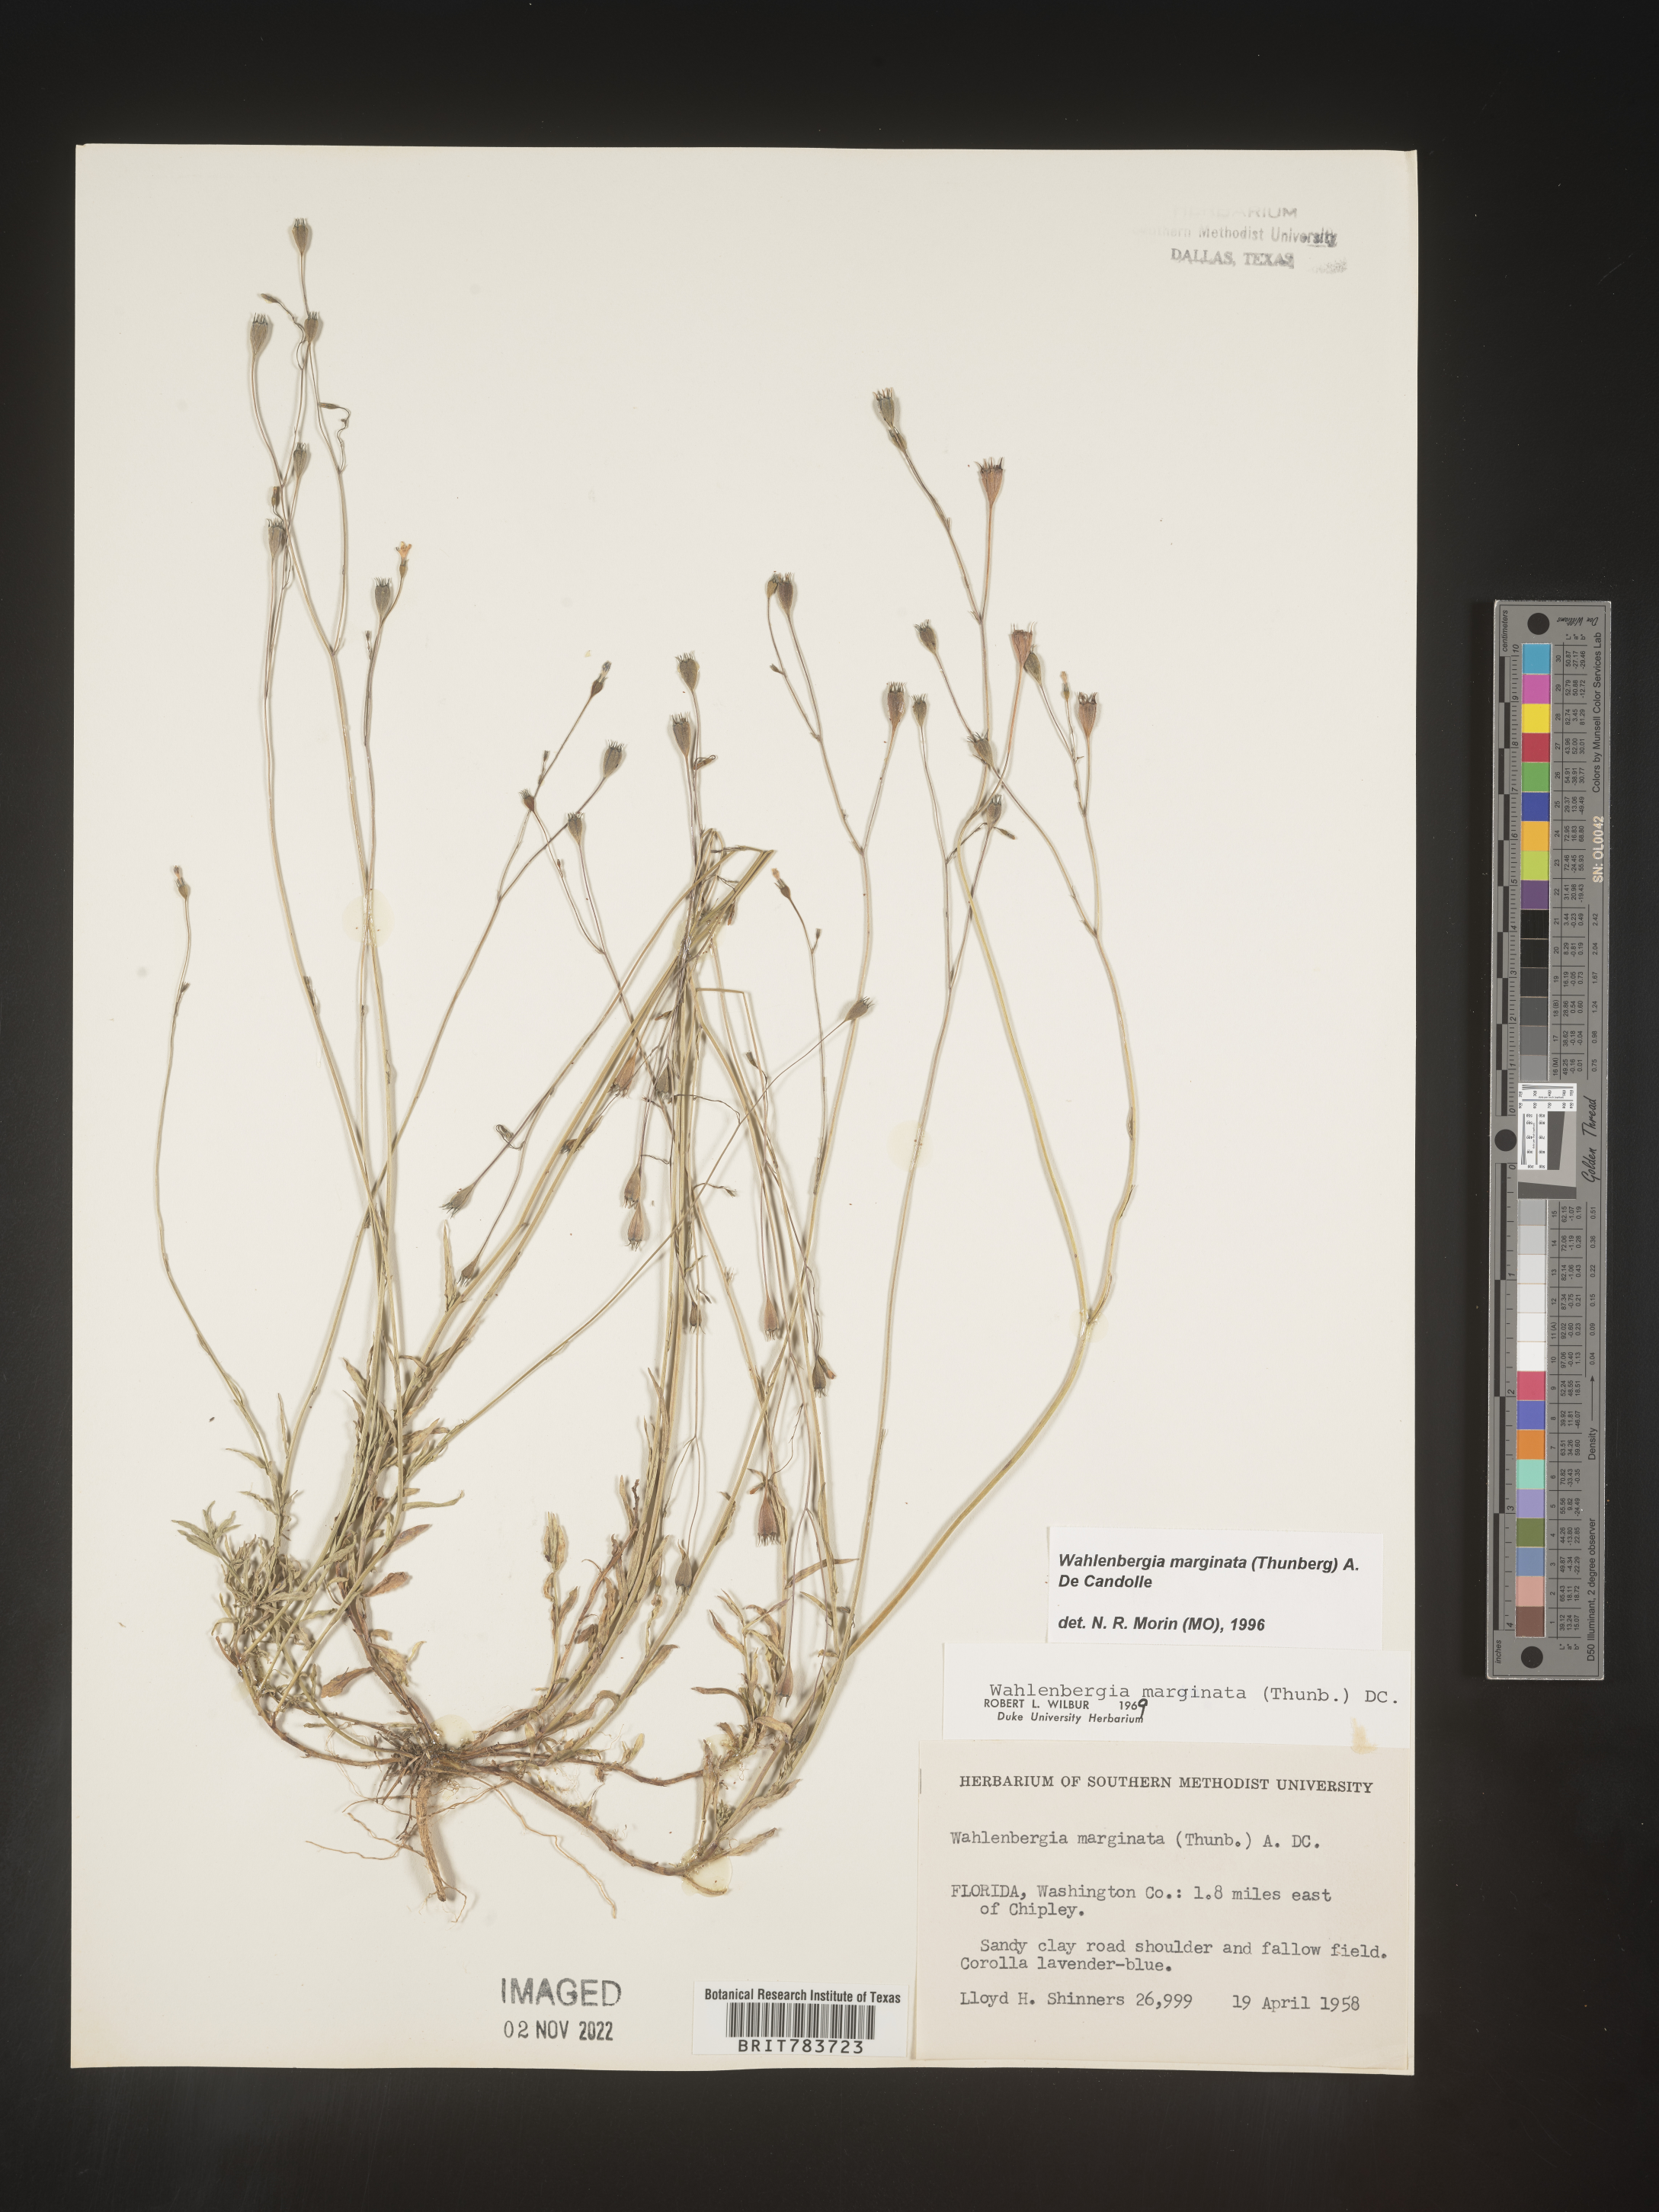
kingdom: Plantae
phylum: Tracheophyta
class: Magnoliopsida
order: Asterales
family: Campanulaceae
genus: Wahlenbergia
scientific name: Wahlenbergia marginata
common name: Southern rockbell
